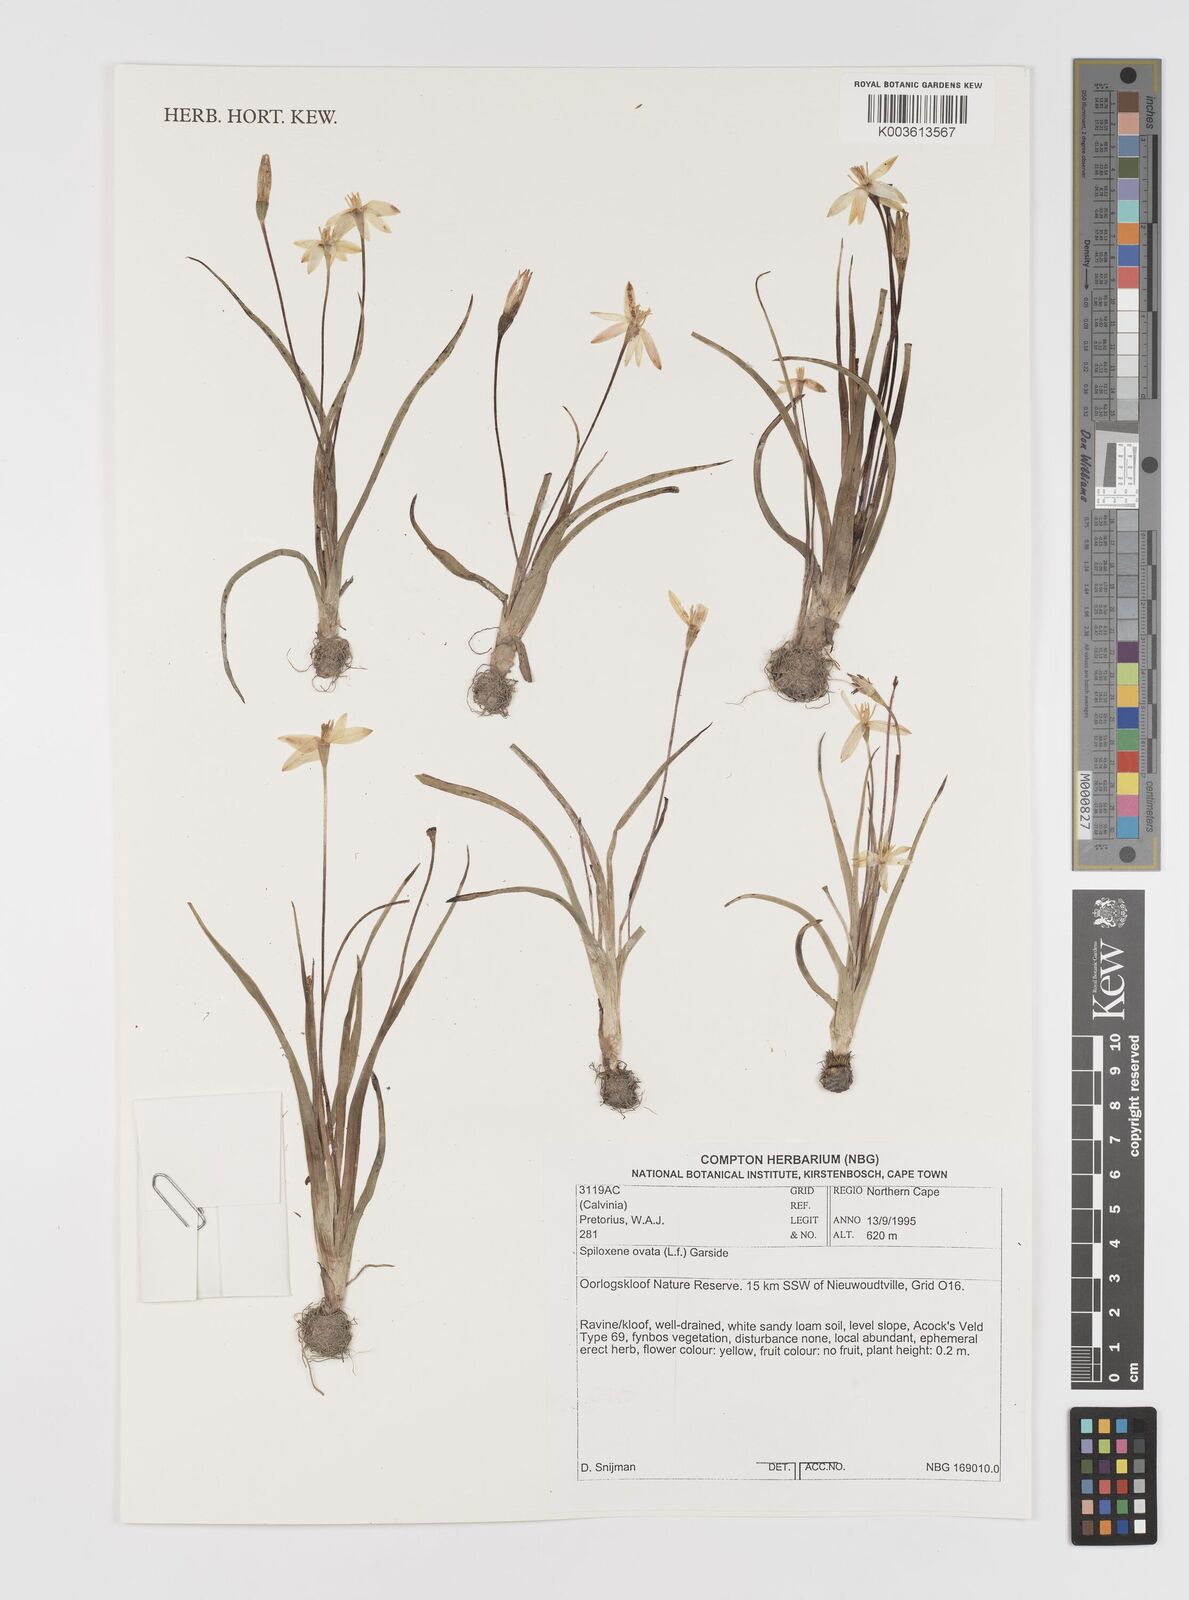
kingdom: Plantae
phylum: Tracheophyta
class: Liliopsida
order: Asparagales
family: Hypoxidaceae
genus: Pauridia
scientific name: Pauridia ovata
